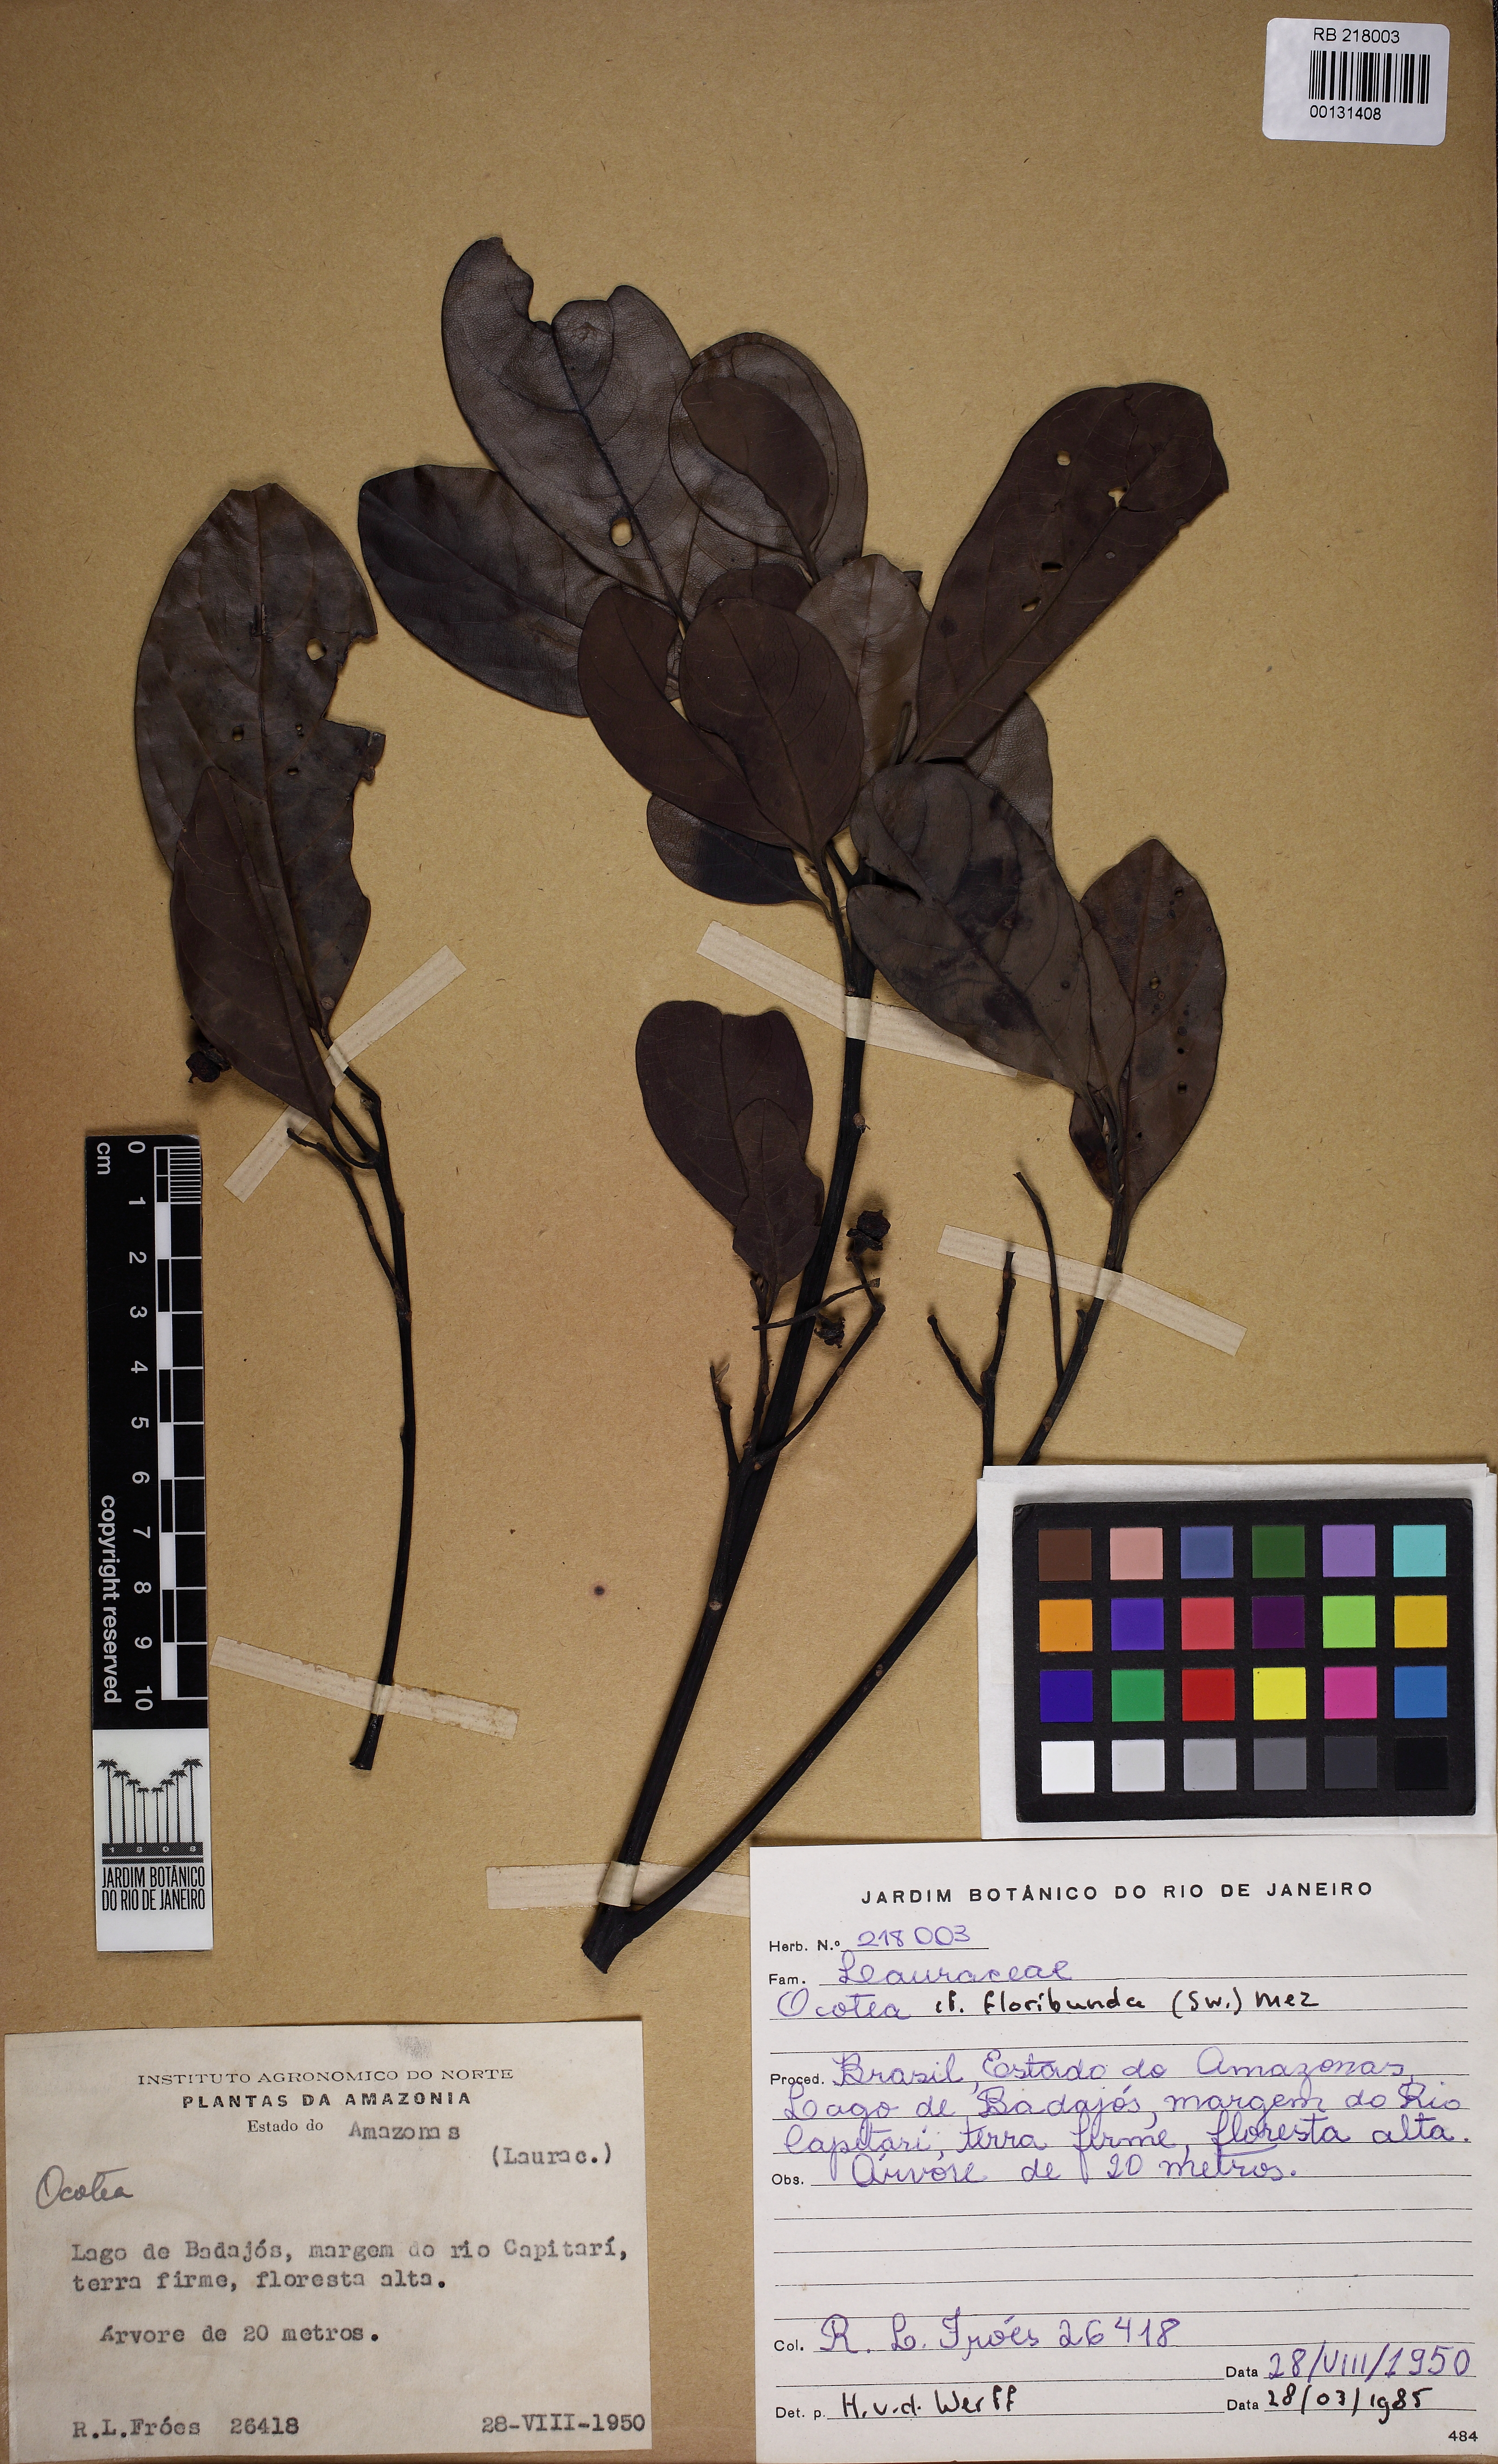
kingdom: Plantae
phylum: Tracheophyta
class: Magnoliopsida
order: Laurales
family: Lauraceae
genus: Ocotea
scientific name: Ocotea floribunda
